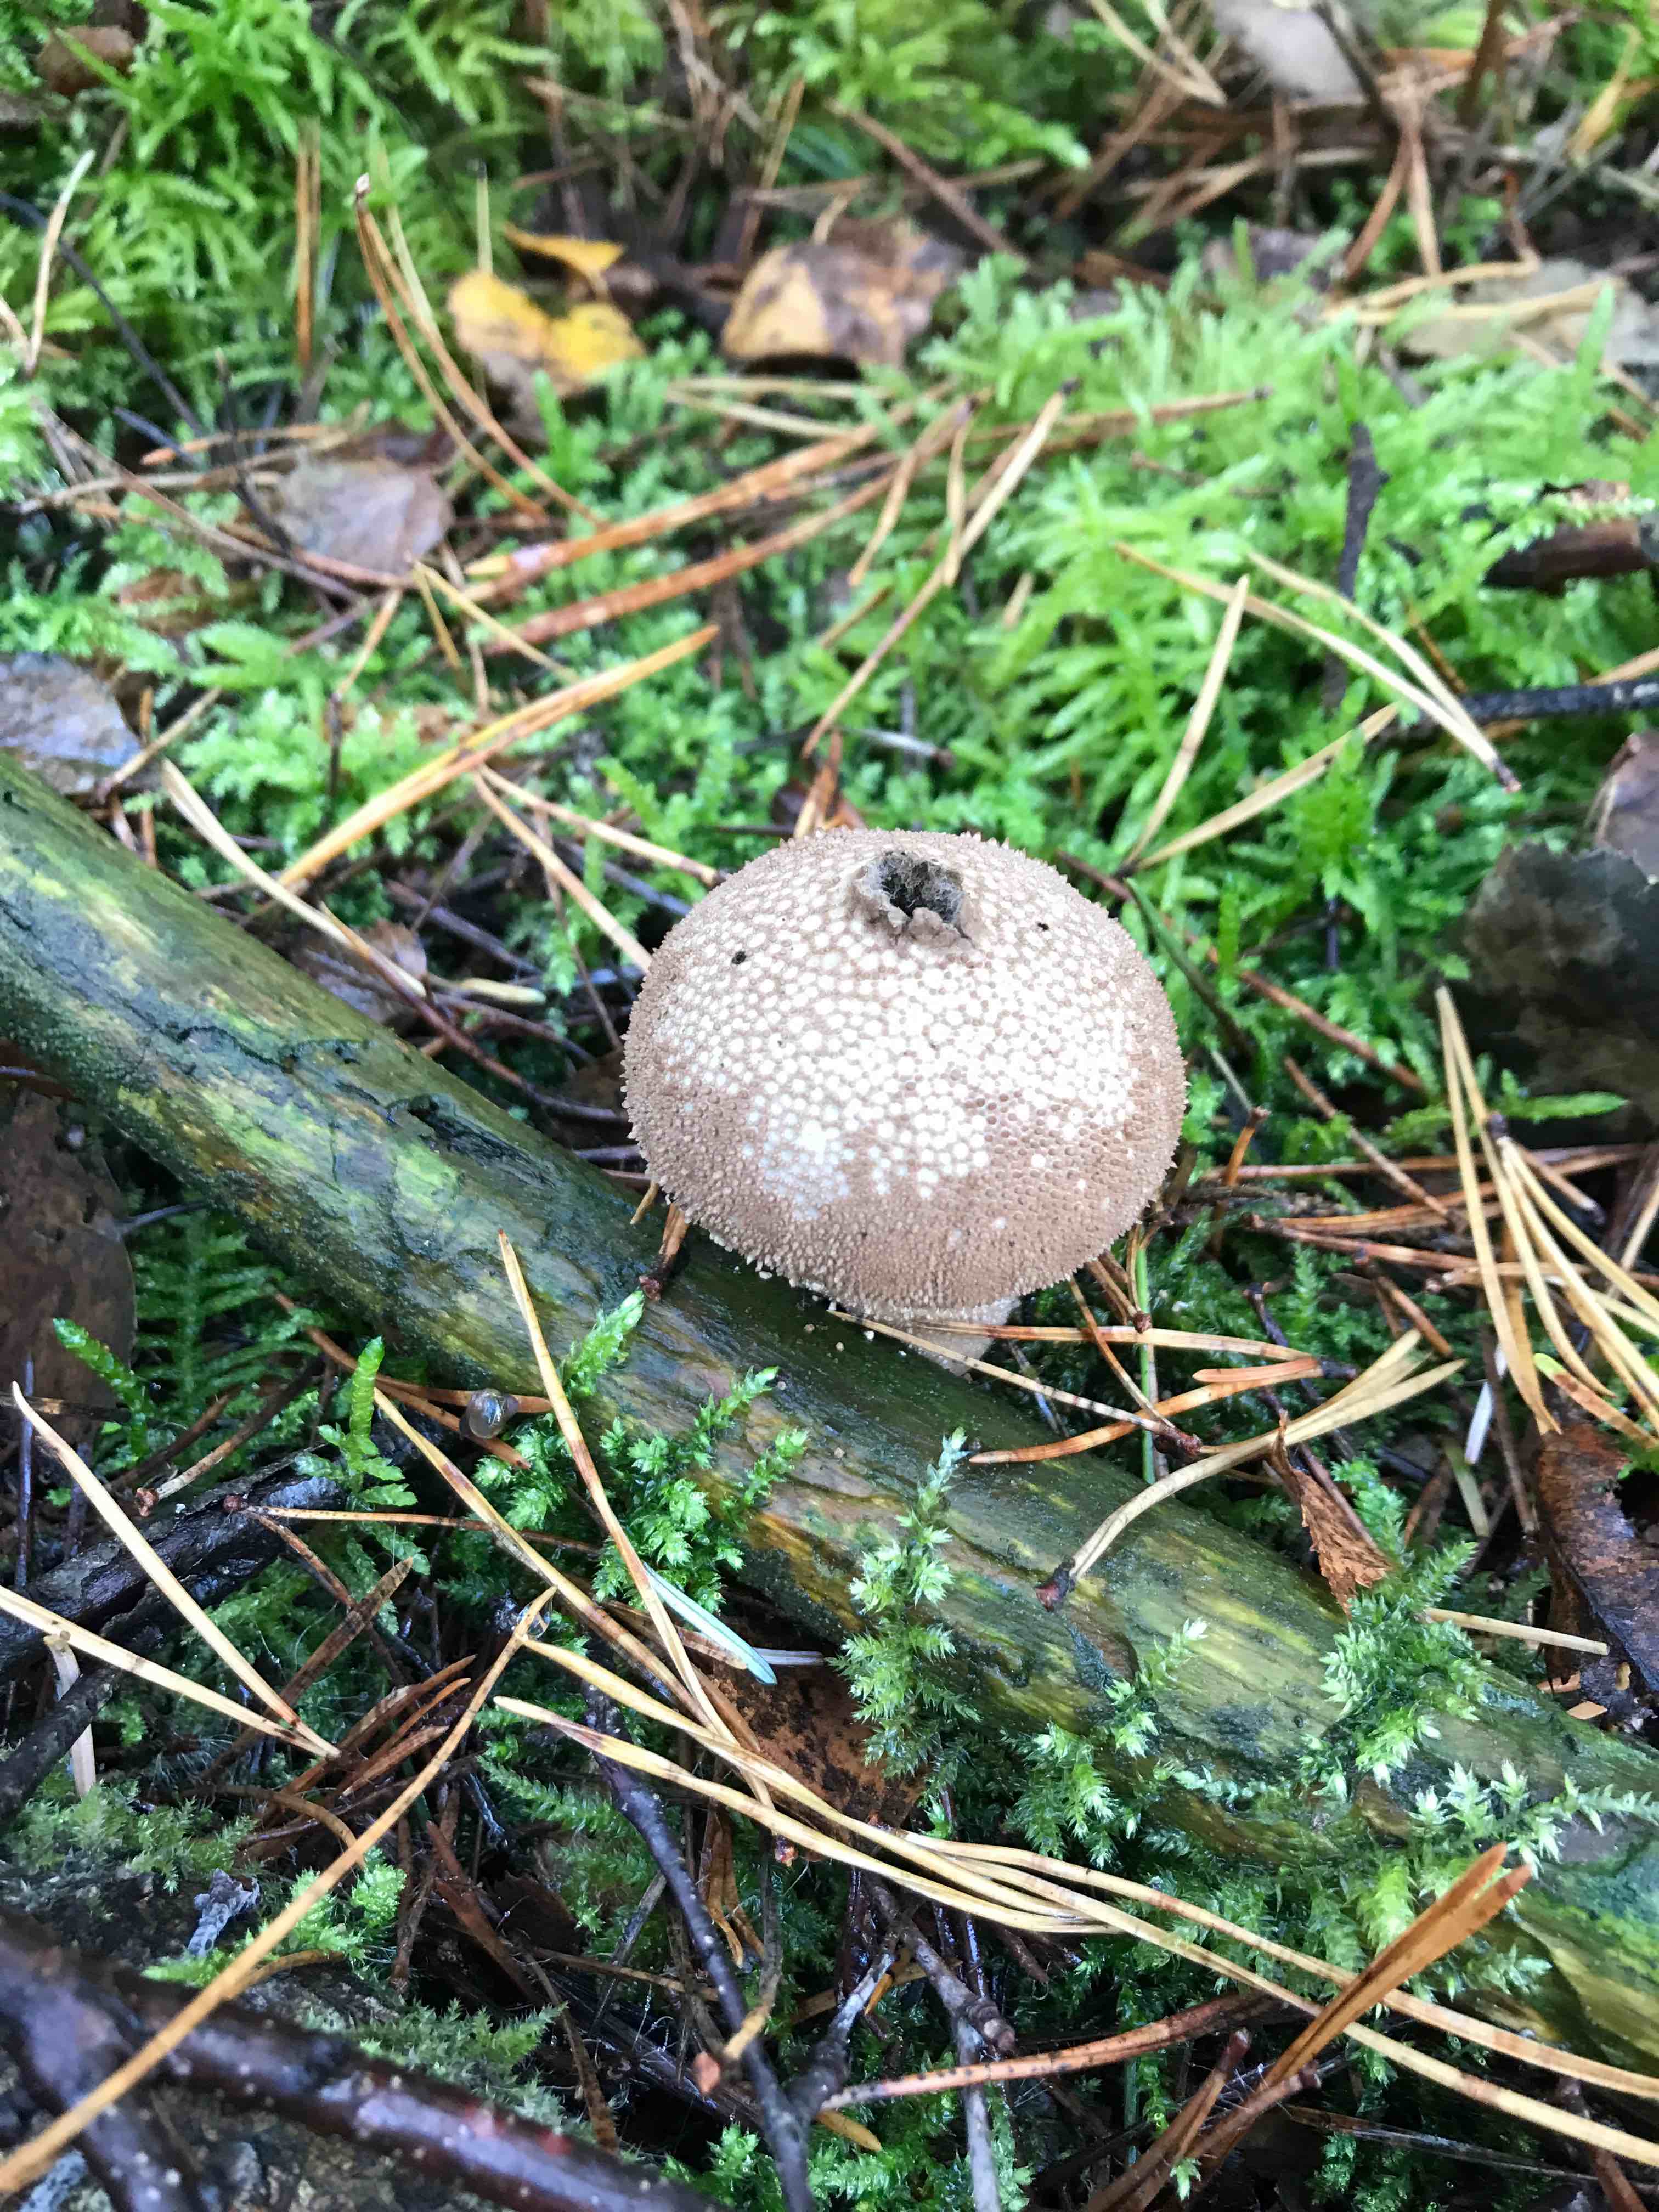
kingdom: Fungi
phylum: Basidiomycota
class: Agaricomycetes
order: Agaricales
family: Lycoperdaceae
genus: Lycoperdon
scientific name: Lycoperdon nigrescens
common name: sortagtig støvbold
